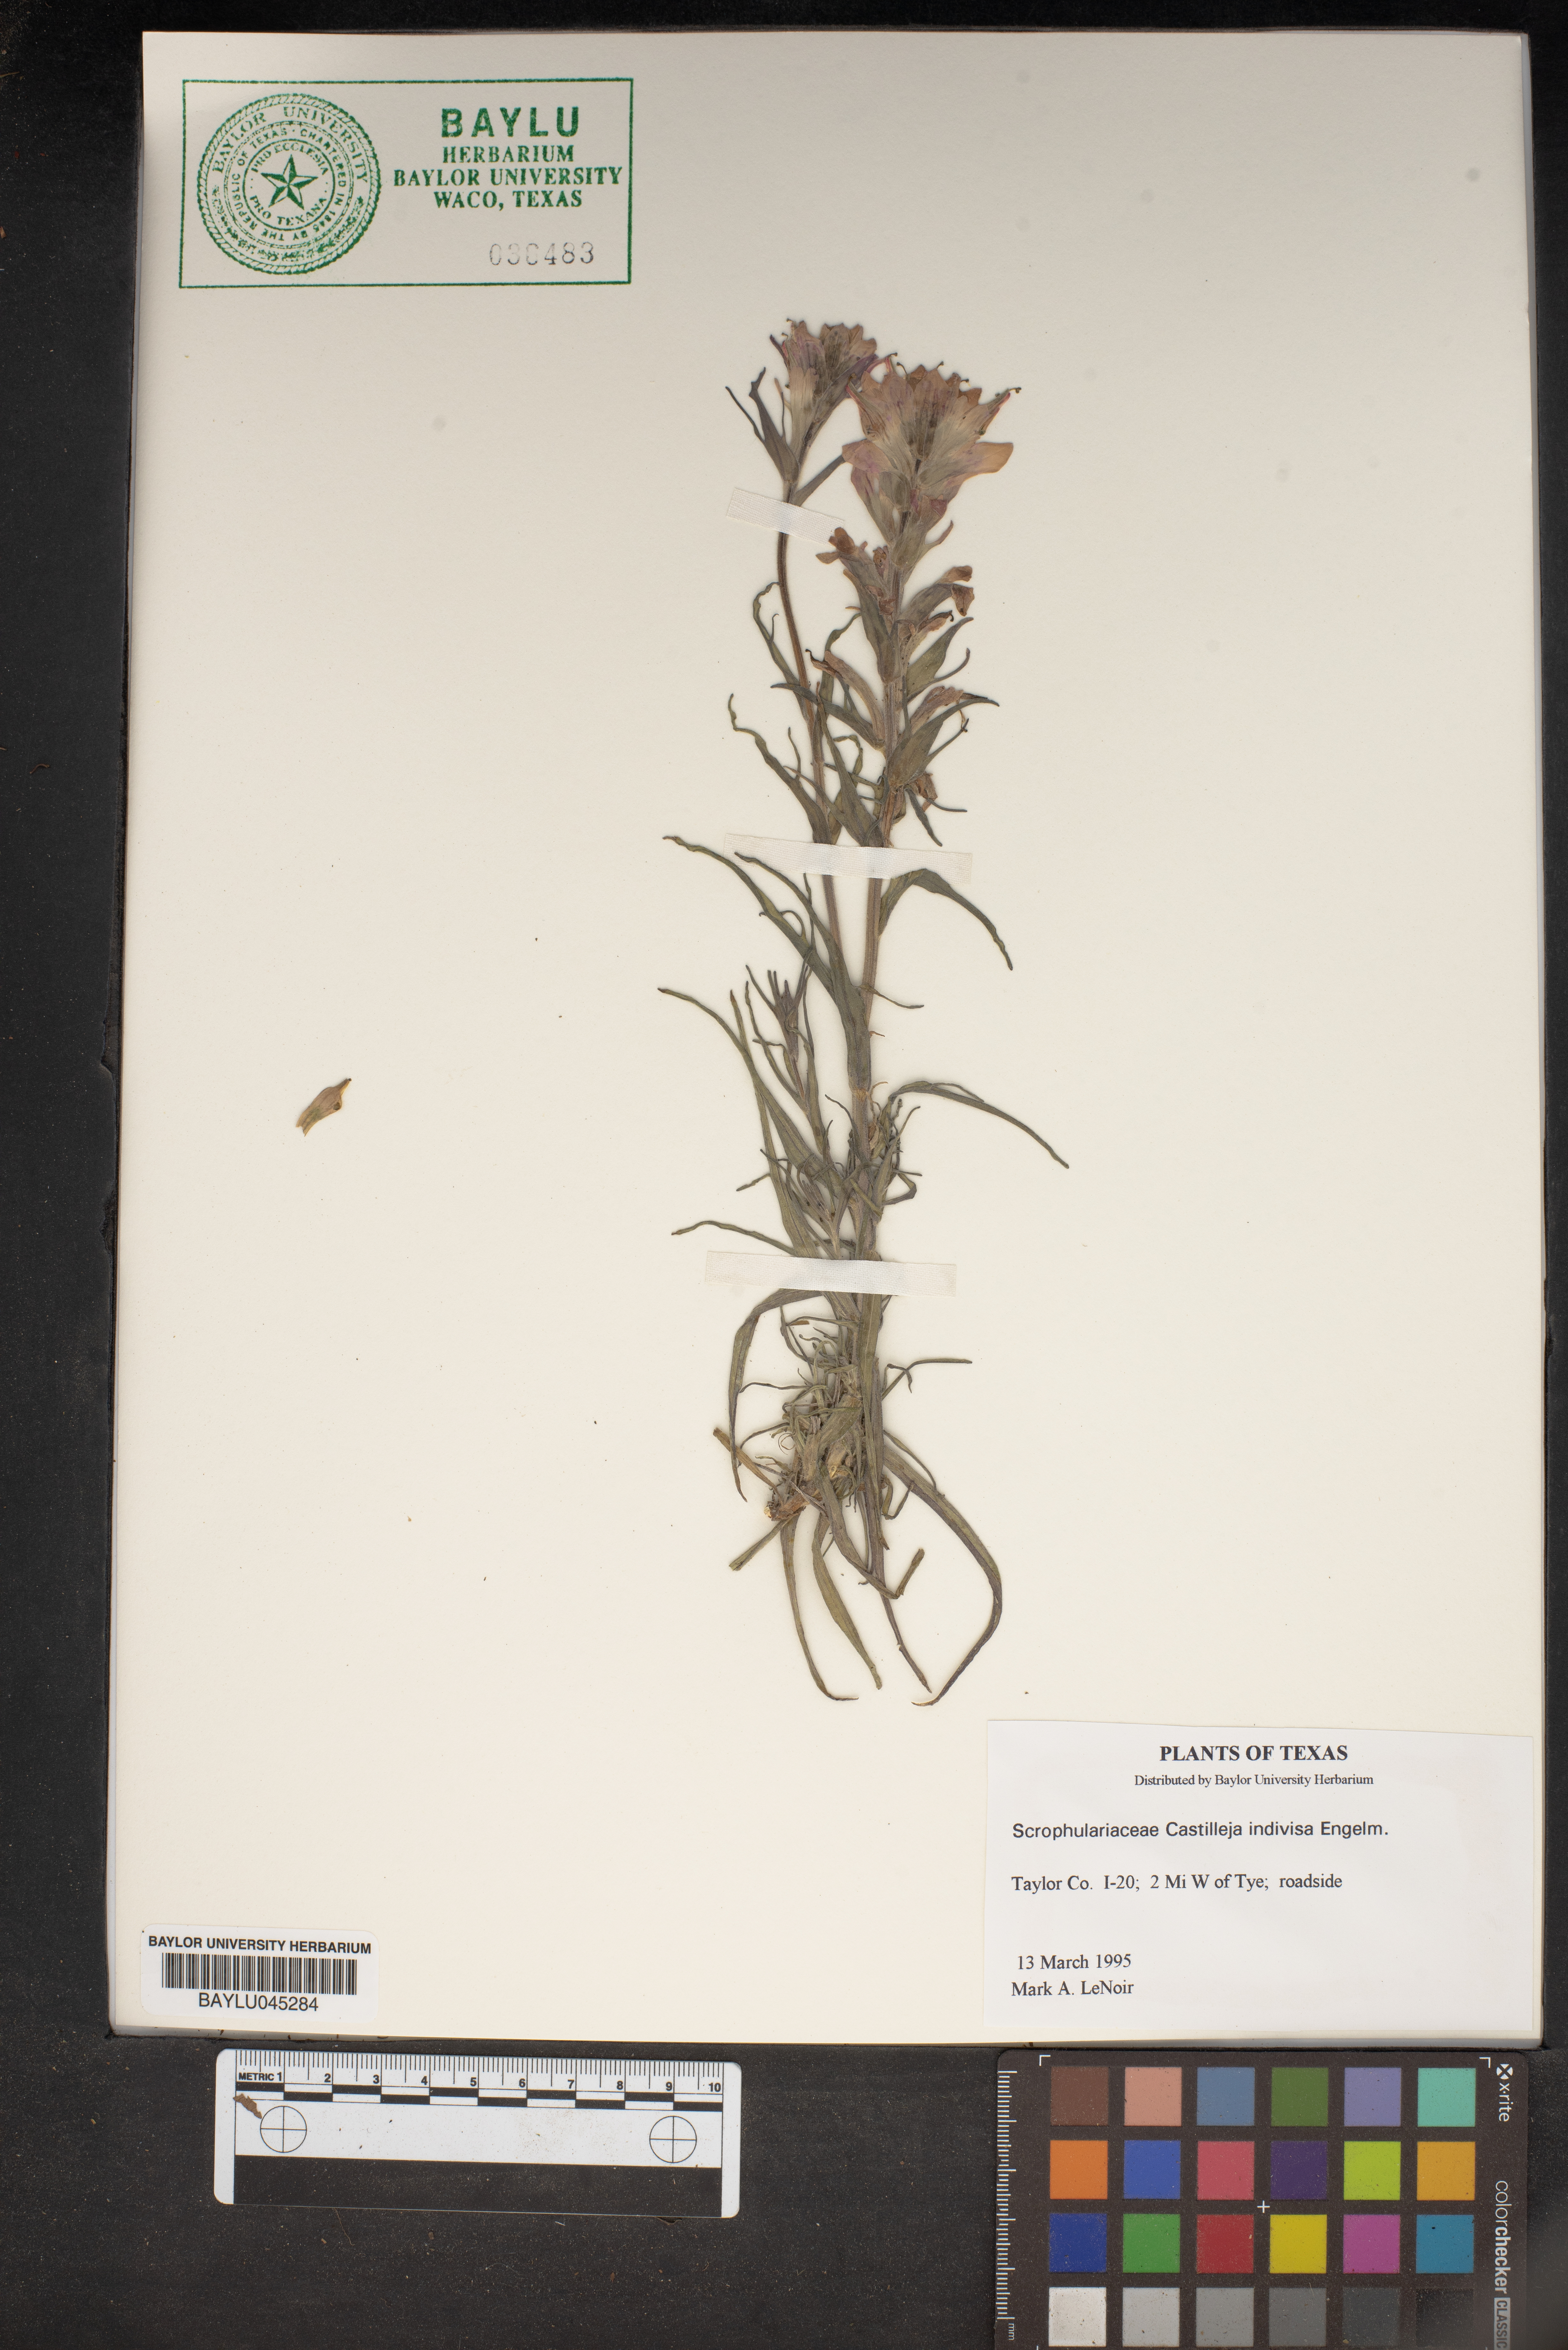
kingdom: Plantae
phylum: Tracheophyta
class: Magnoliopsida
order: Lamiales
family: Orobanchaceae
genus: Castilleja
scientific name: Castilleja indivisa
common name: Texas paintbrush
